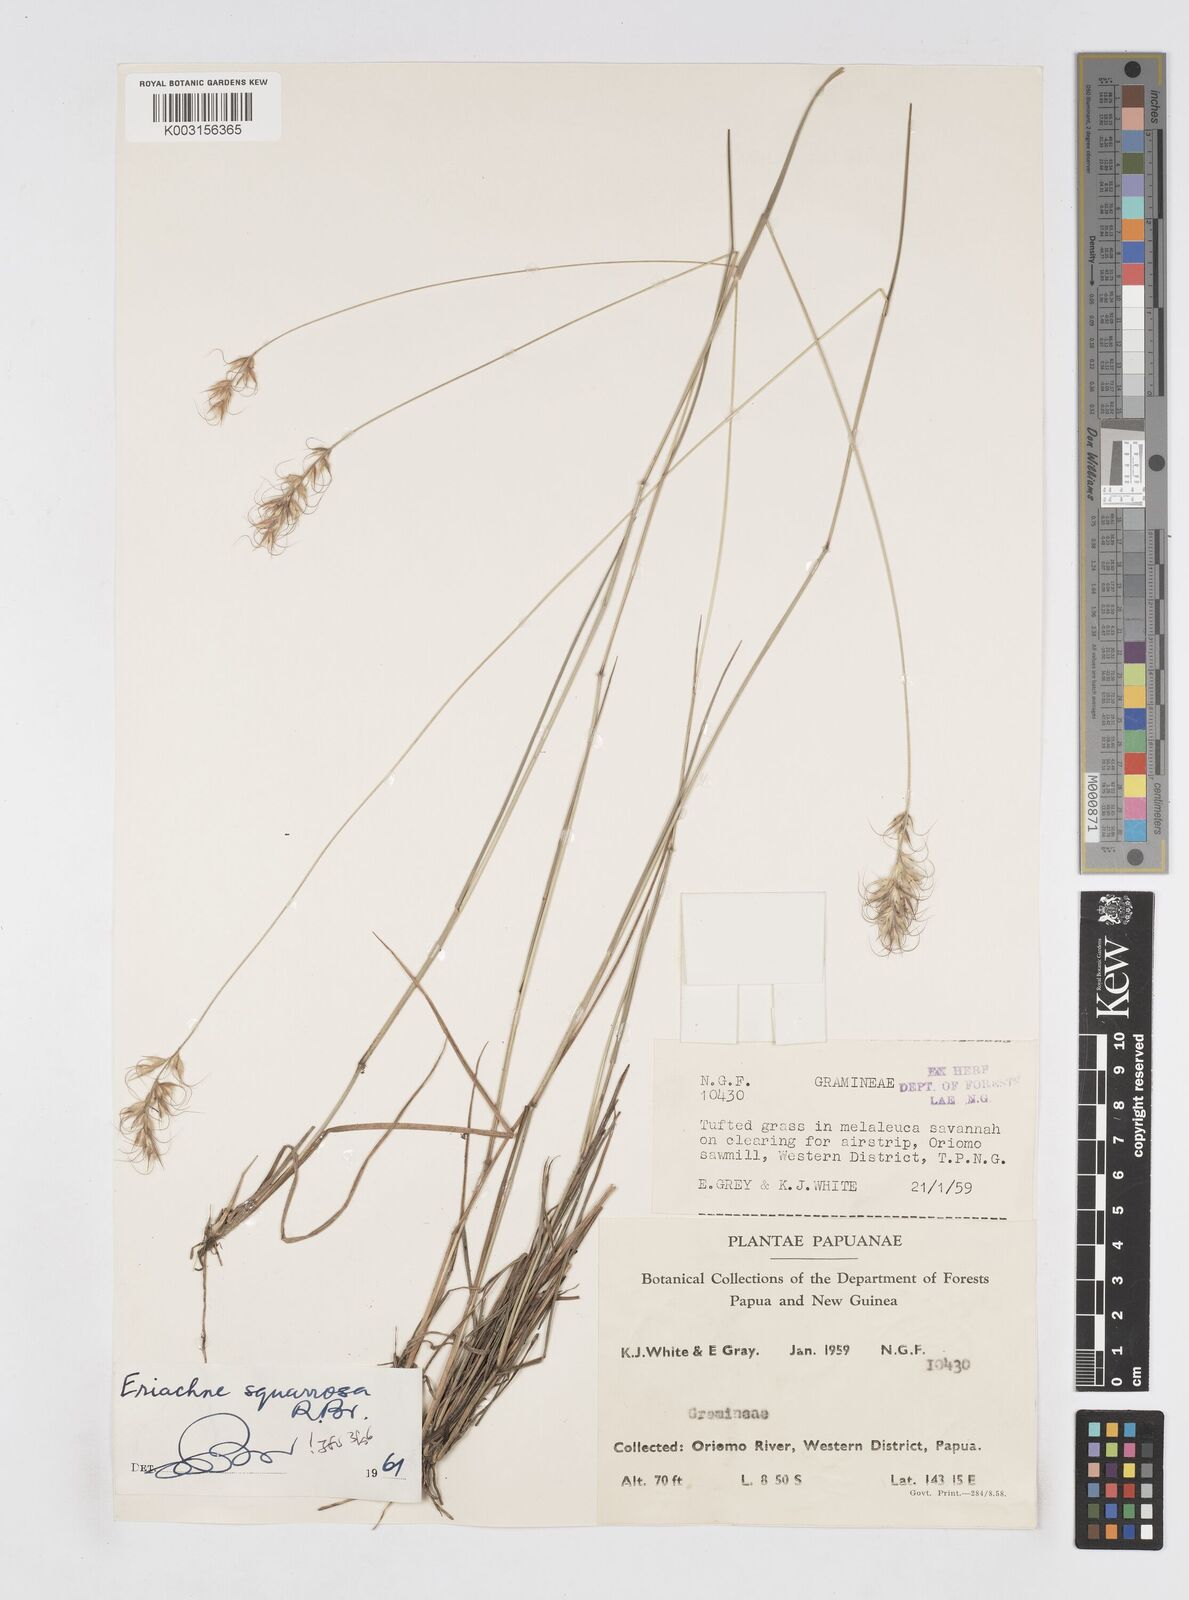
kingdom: Plantae
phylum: Tracheophyta
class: Liliopsida
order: Poales
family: Poaceae
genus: Eriachne
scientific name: Eriachne squarrosa
